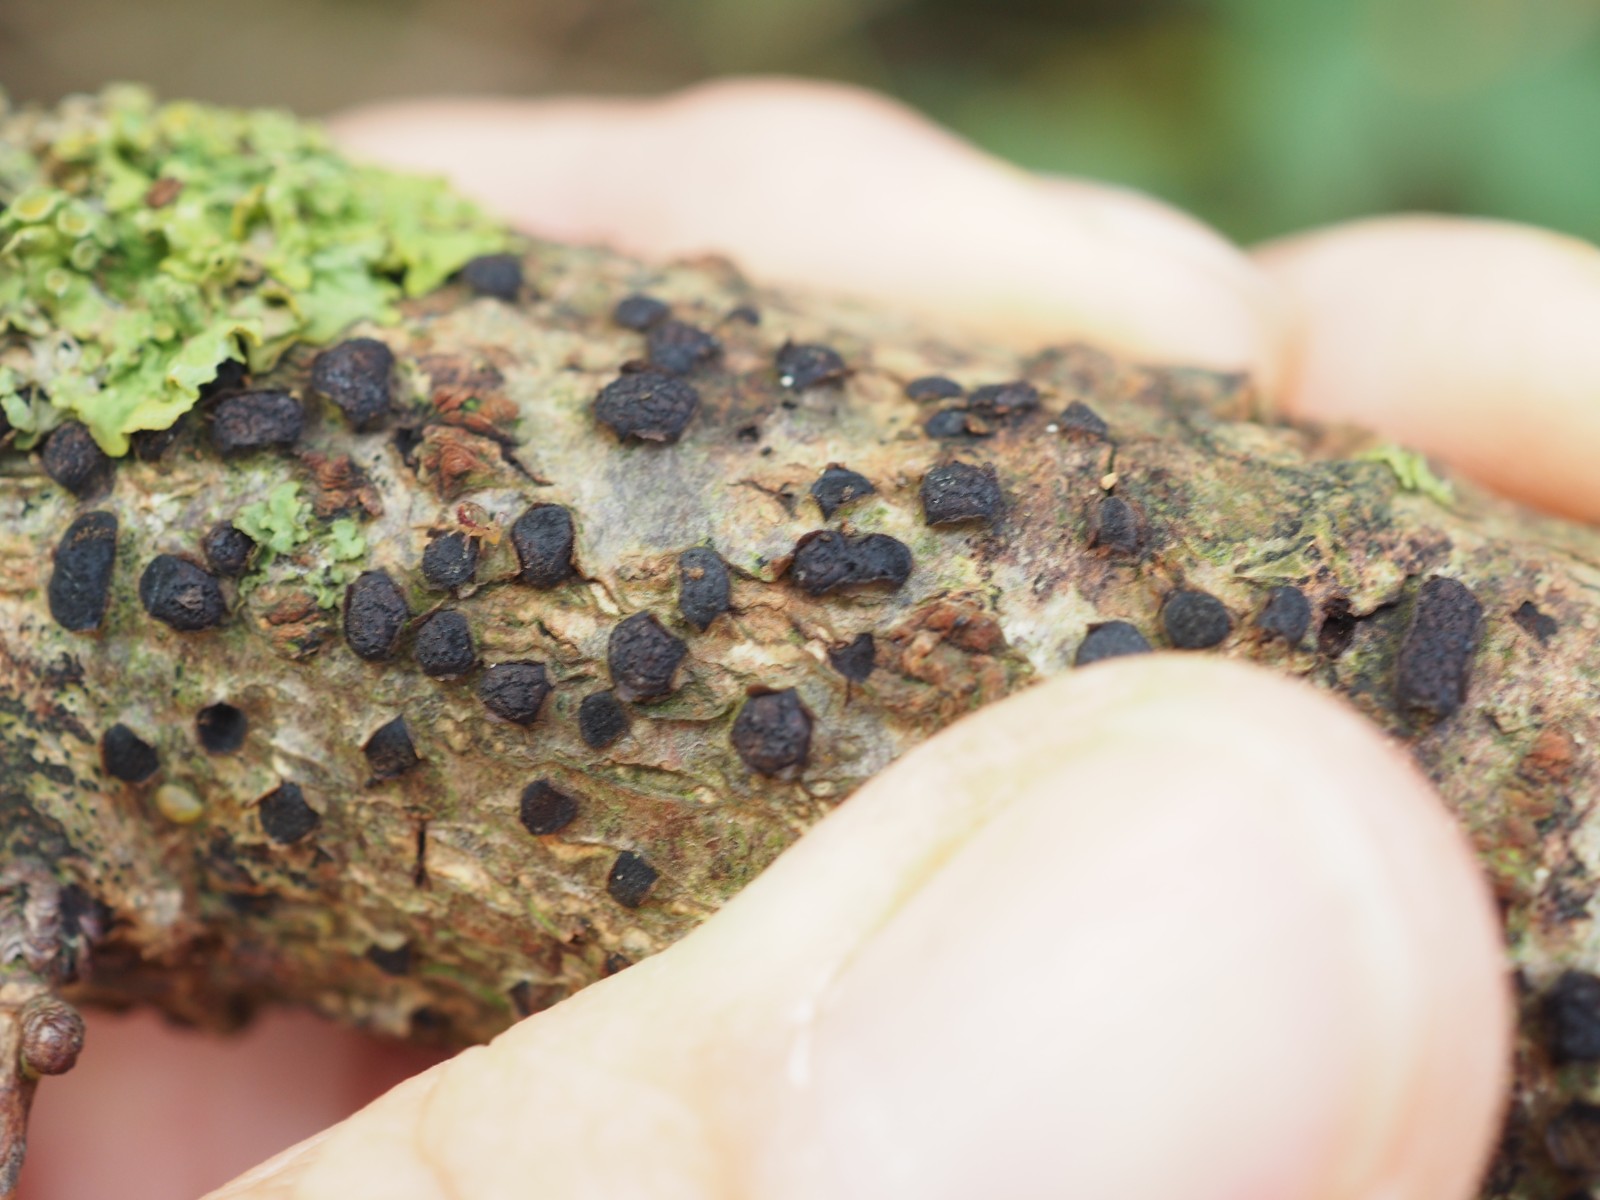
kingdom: Fungi
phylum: Ascomycota
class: Sordariomycetes
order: Xylariales
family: Diatrypaceae
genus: Diatrypella
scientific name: Diatrypella quercina
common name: ege-kulskorpe
